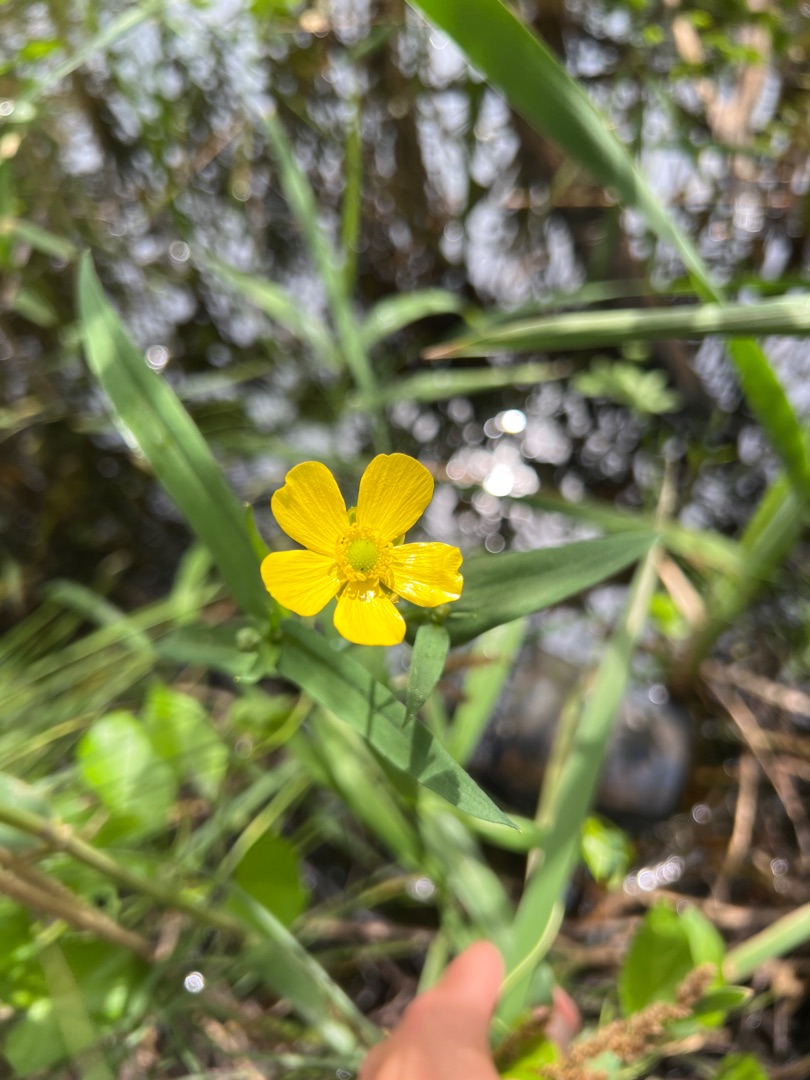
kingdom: Plantae
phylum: Tracheophyta
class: Magnoliopsida
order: Ranunculales
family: Ranunculaceae
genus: Ranunculus
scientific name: Ranunculus lingua
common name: Langbladet ranunkel
